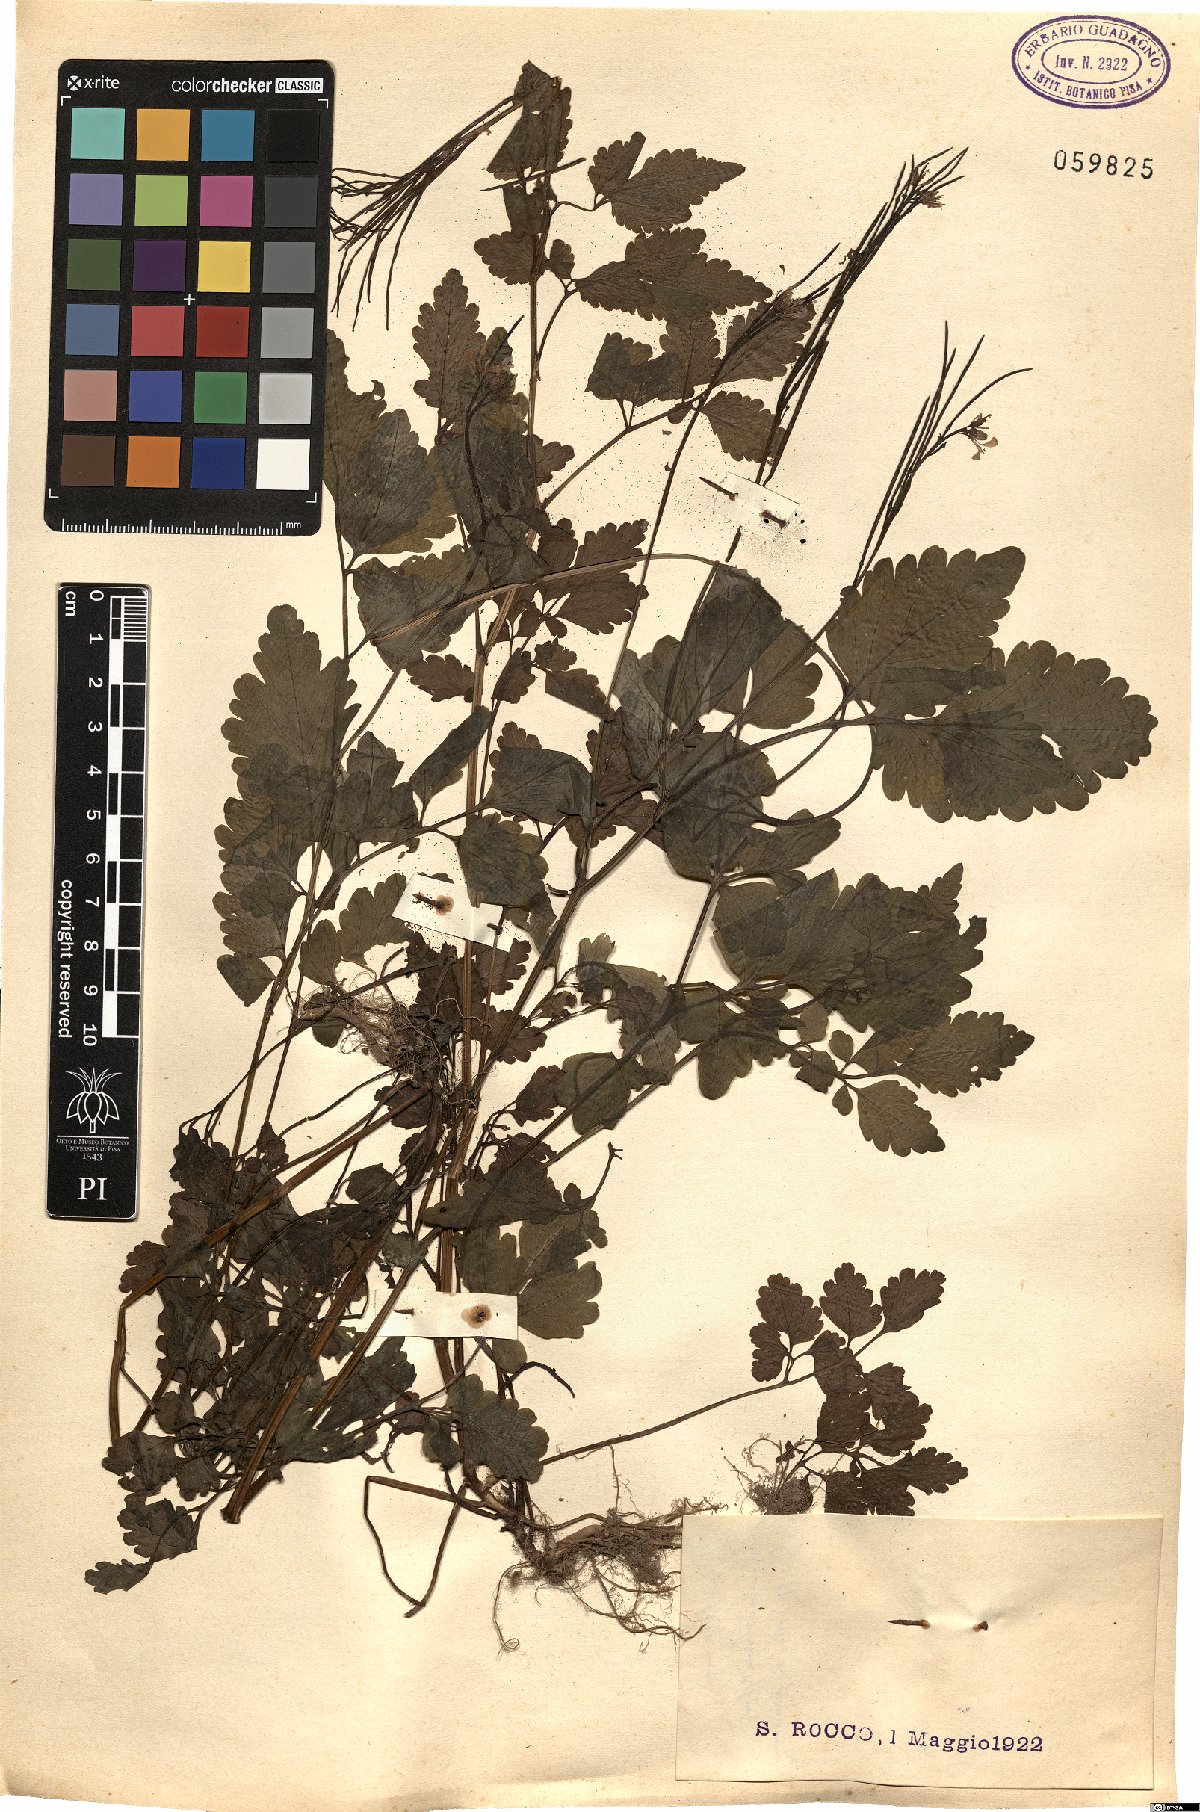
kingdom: Plantae
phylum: Tracheophyta
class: Magnoliopsida
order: Brassicales
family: Brassicaceae
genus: Cardamine
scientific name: Cardamine chelidonia
